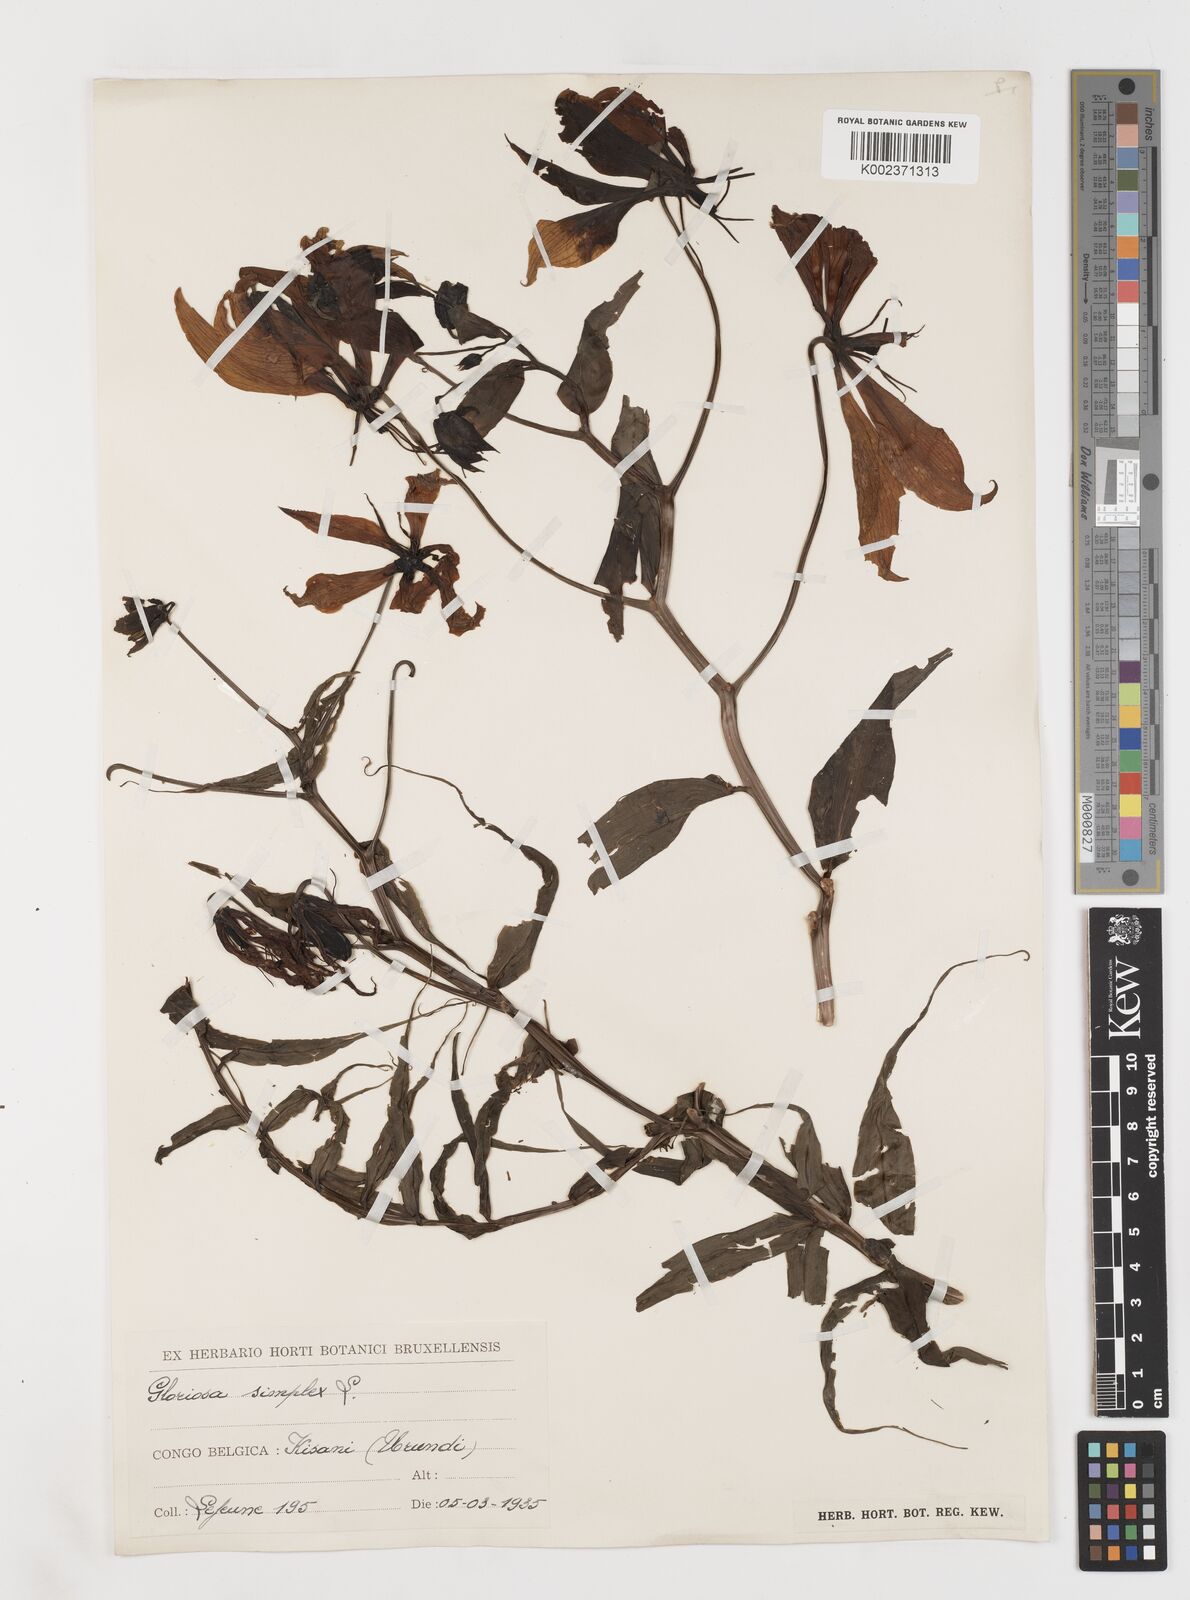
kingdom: Plantae
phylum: Tracheophyta
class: Liliopsida
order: Liliales
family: Colchicaceae
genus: Gloriosa
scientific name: Gloriosa simplex
